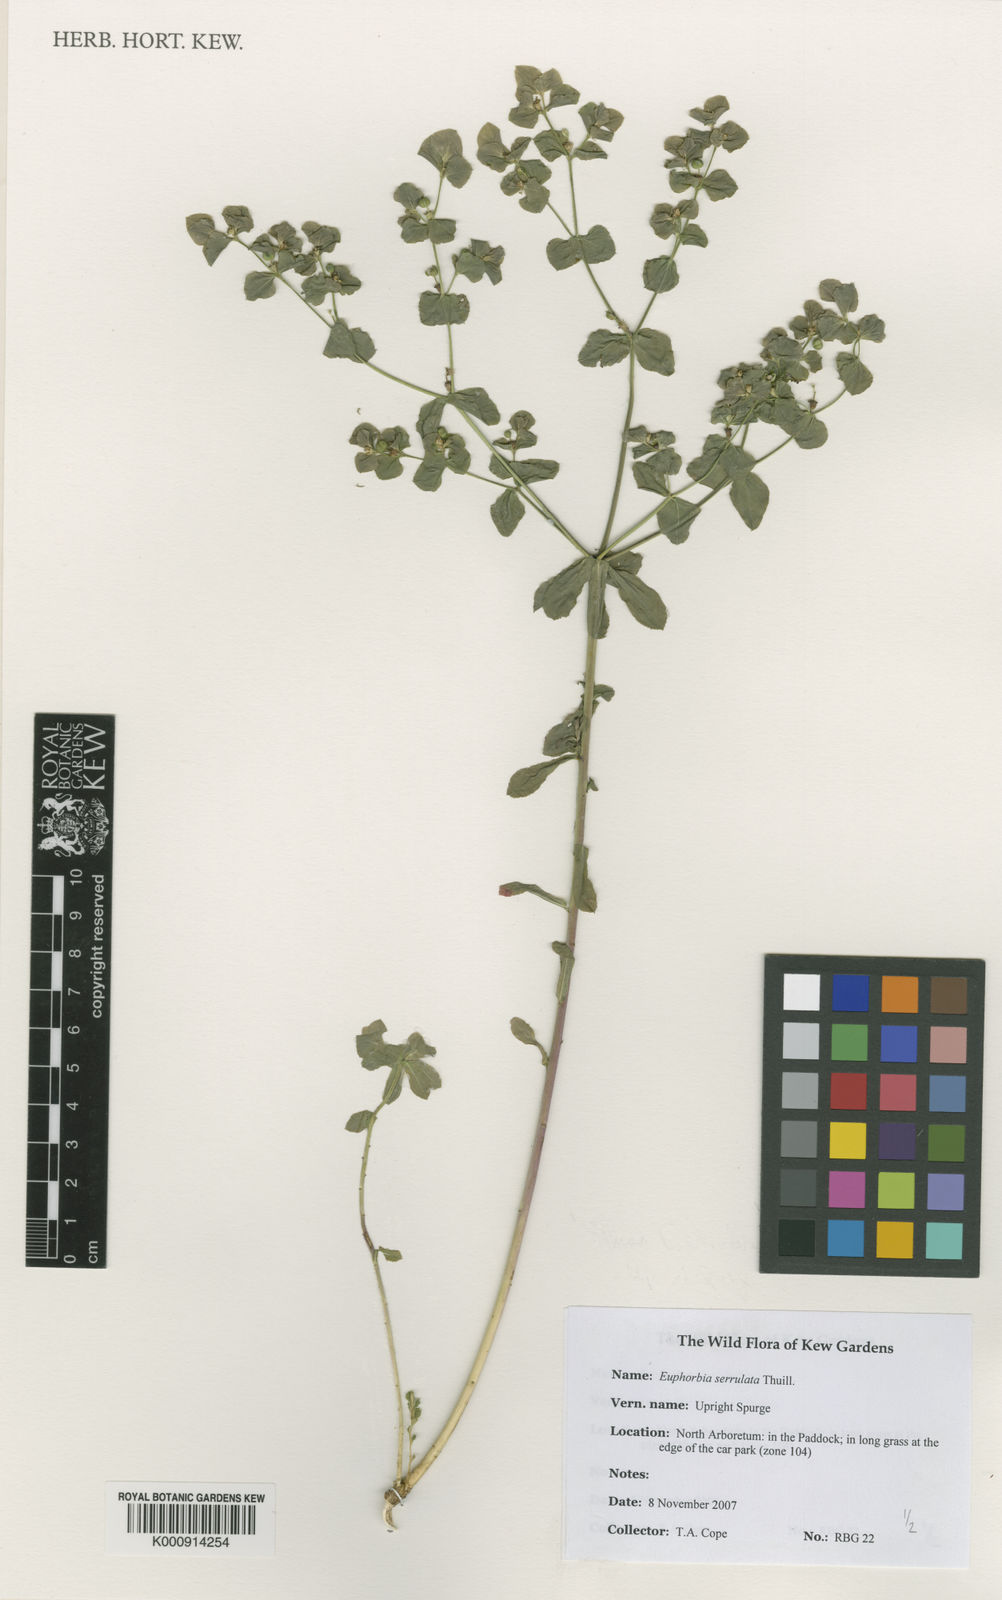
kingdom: Plantae
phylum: Tracheophyta
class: Magnoliopsida
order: Malpighiales
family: Euphorbiaceae
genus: Euphorbia
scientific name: Euphorbia stricta
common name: Upright spurge
